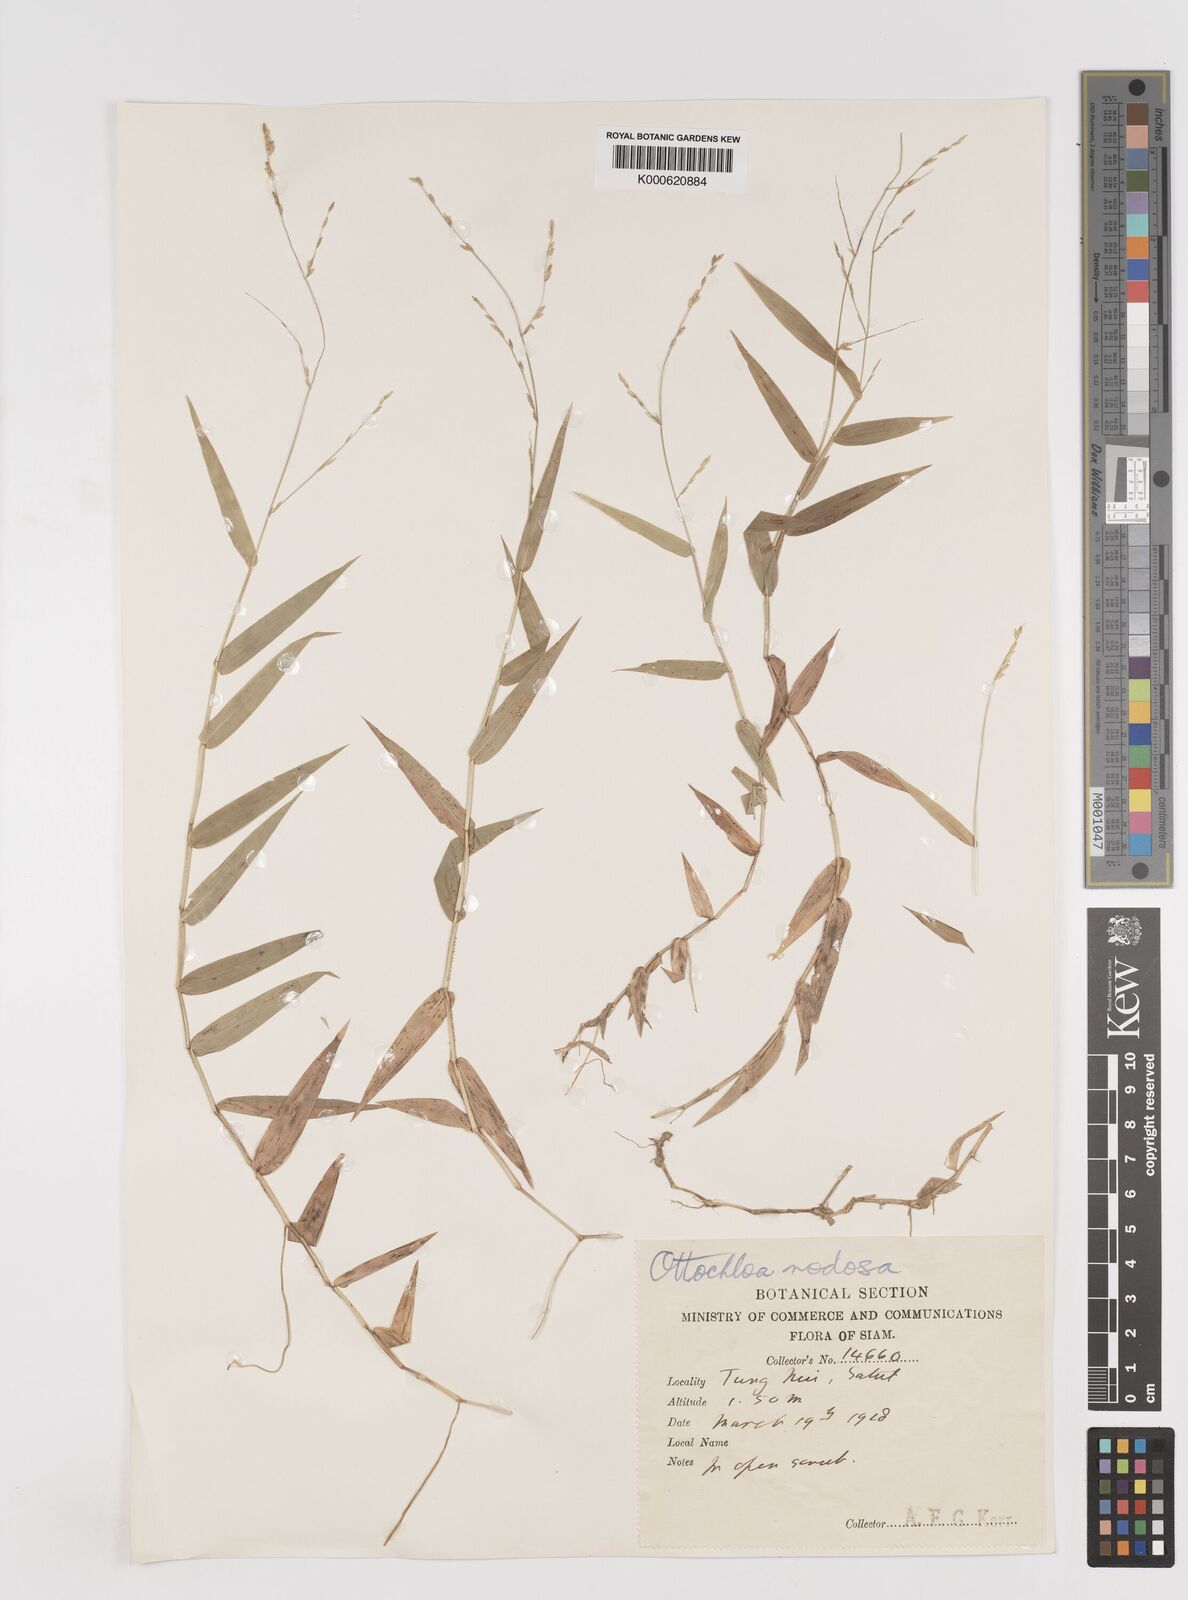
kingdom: Plantae
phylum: Tracheophyta
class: Liliopsida
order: Poales
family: Poaceae
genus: Ottochloa
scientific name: Ottochloa nodosa
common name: Slender-panic grass
